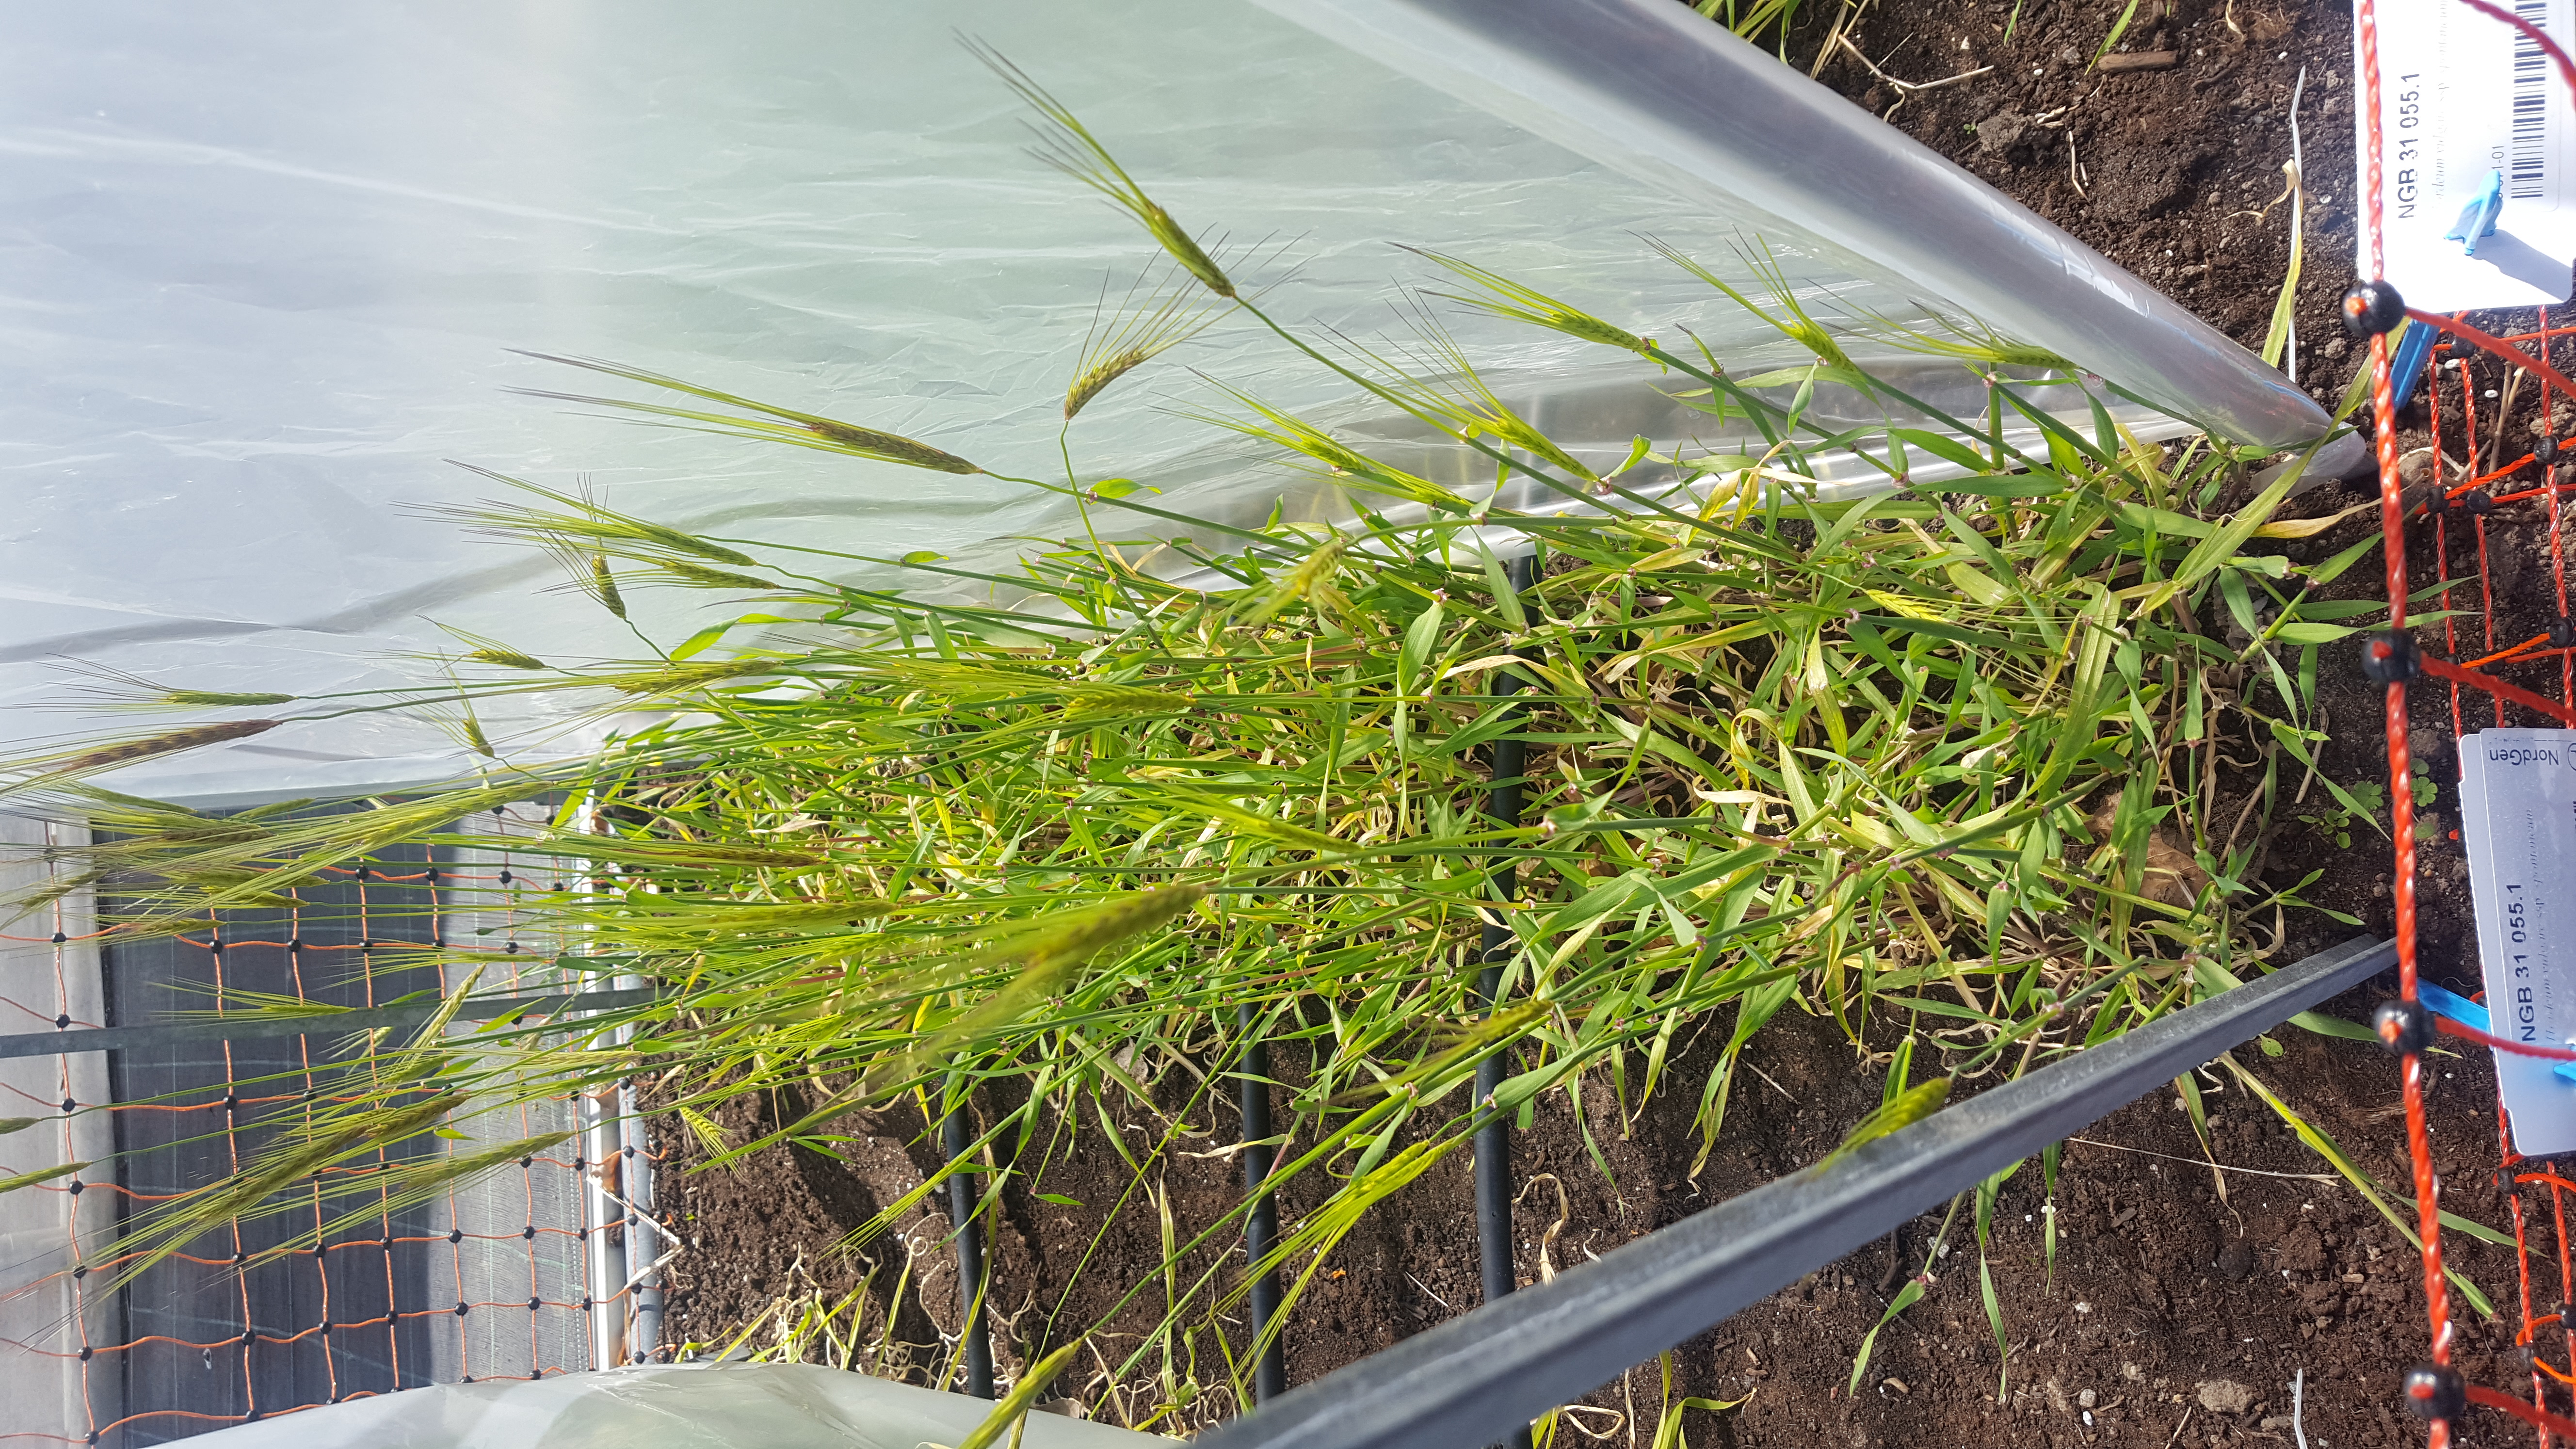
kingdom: Plantae
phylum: Tracheophyta
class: Liliopsida
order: Poales
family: Poaceae
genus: Hordeum
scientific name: Hordeum spontaneum
